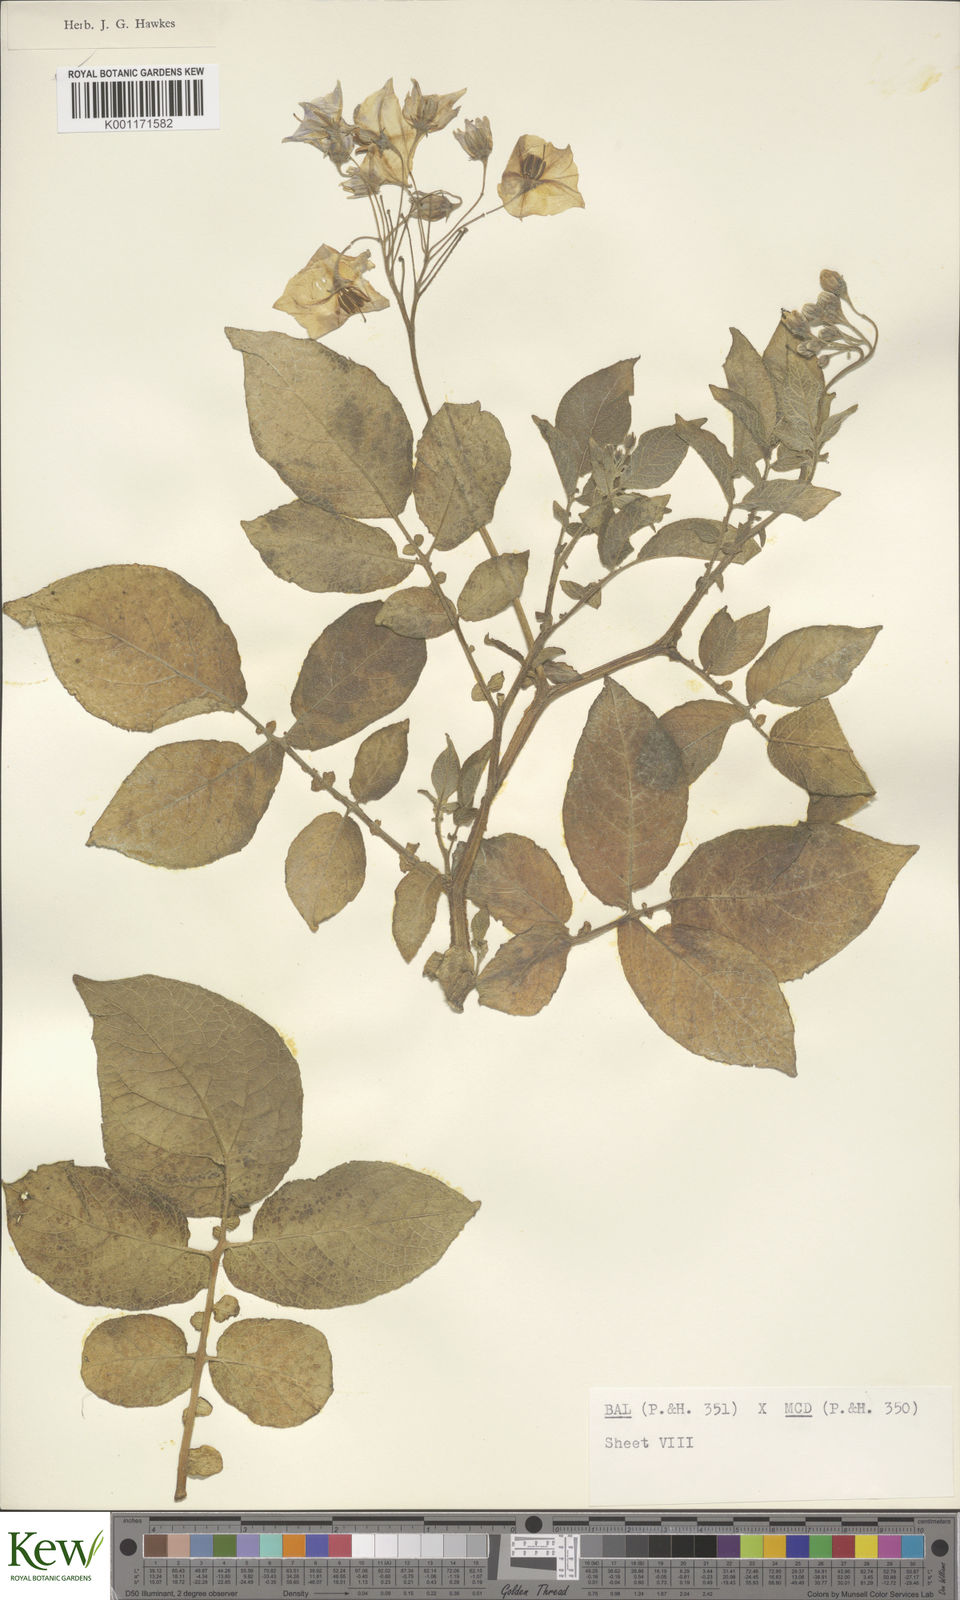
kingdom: Plantae
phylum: Tracheophyta
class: Magnoliopsida
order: Solanales
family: Solanaceae
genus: Solanum
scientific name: Solanum vernei
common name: Purple potato
